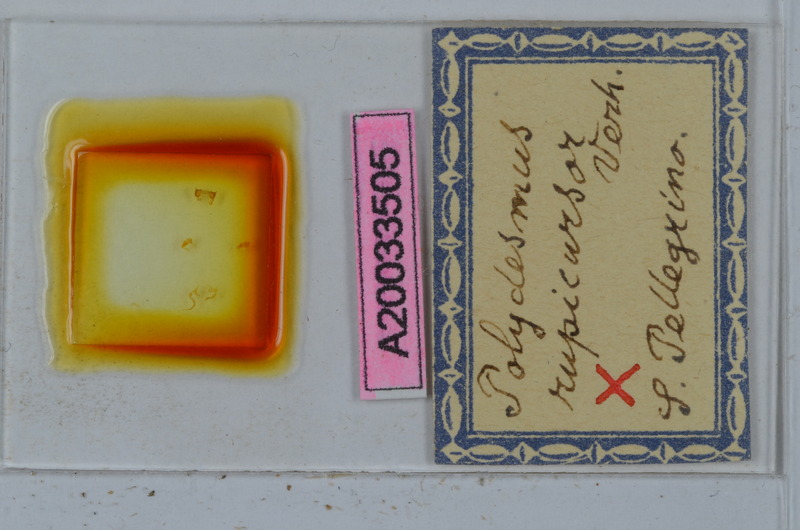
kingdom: Animalia
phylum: Arthropoda
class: Diplopoda
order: Polydesmida
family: Polydesmidae
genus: Polydesmus
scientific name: Polydesmus rupicursor
